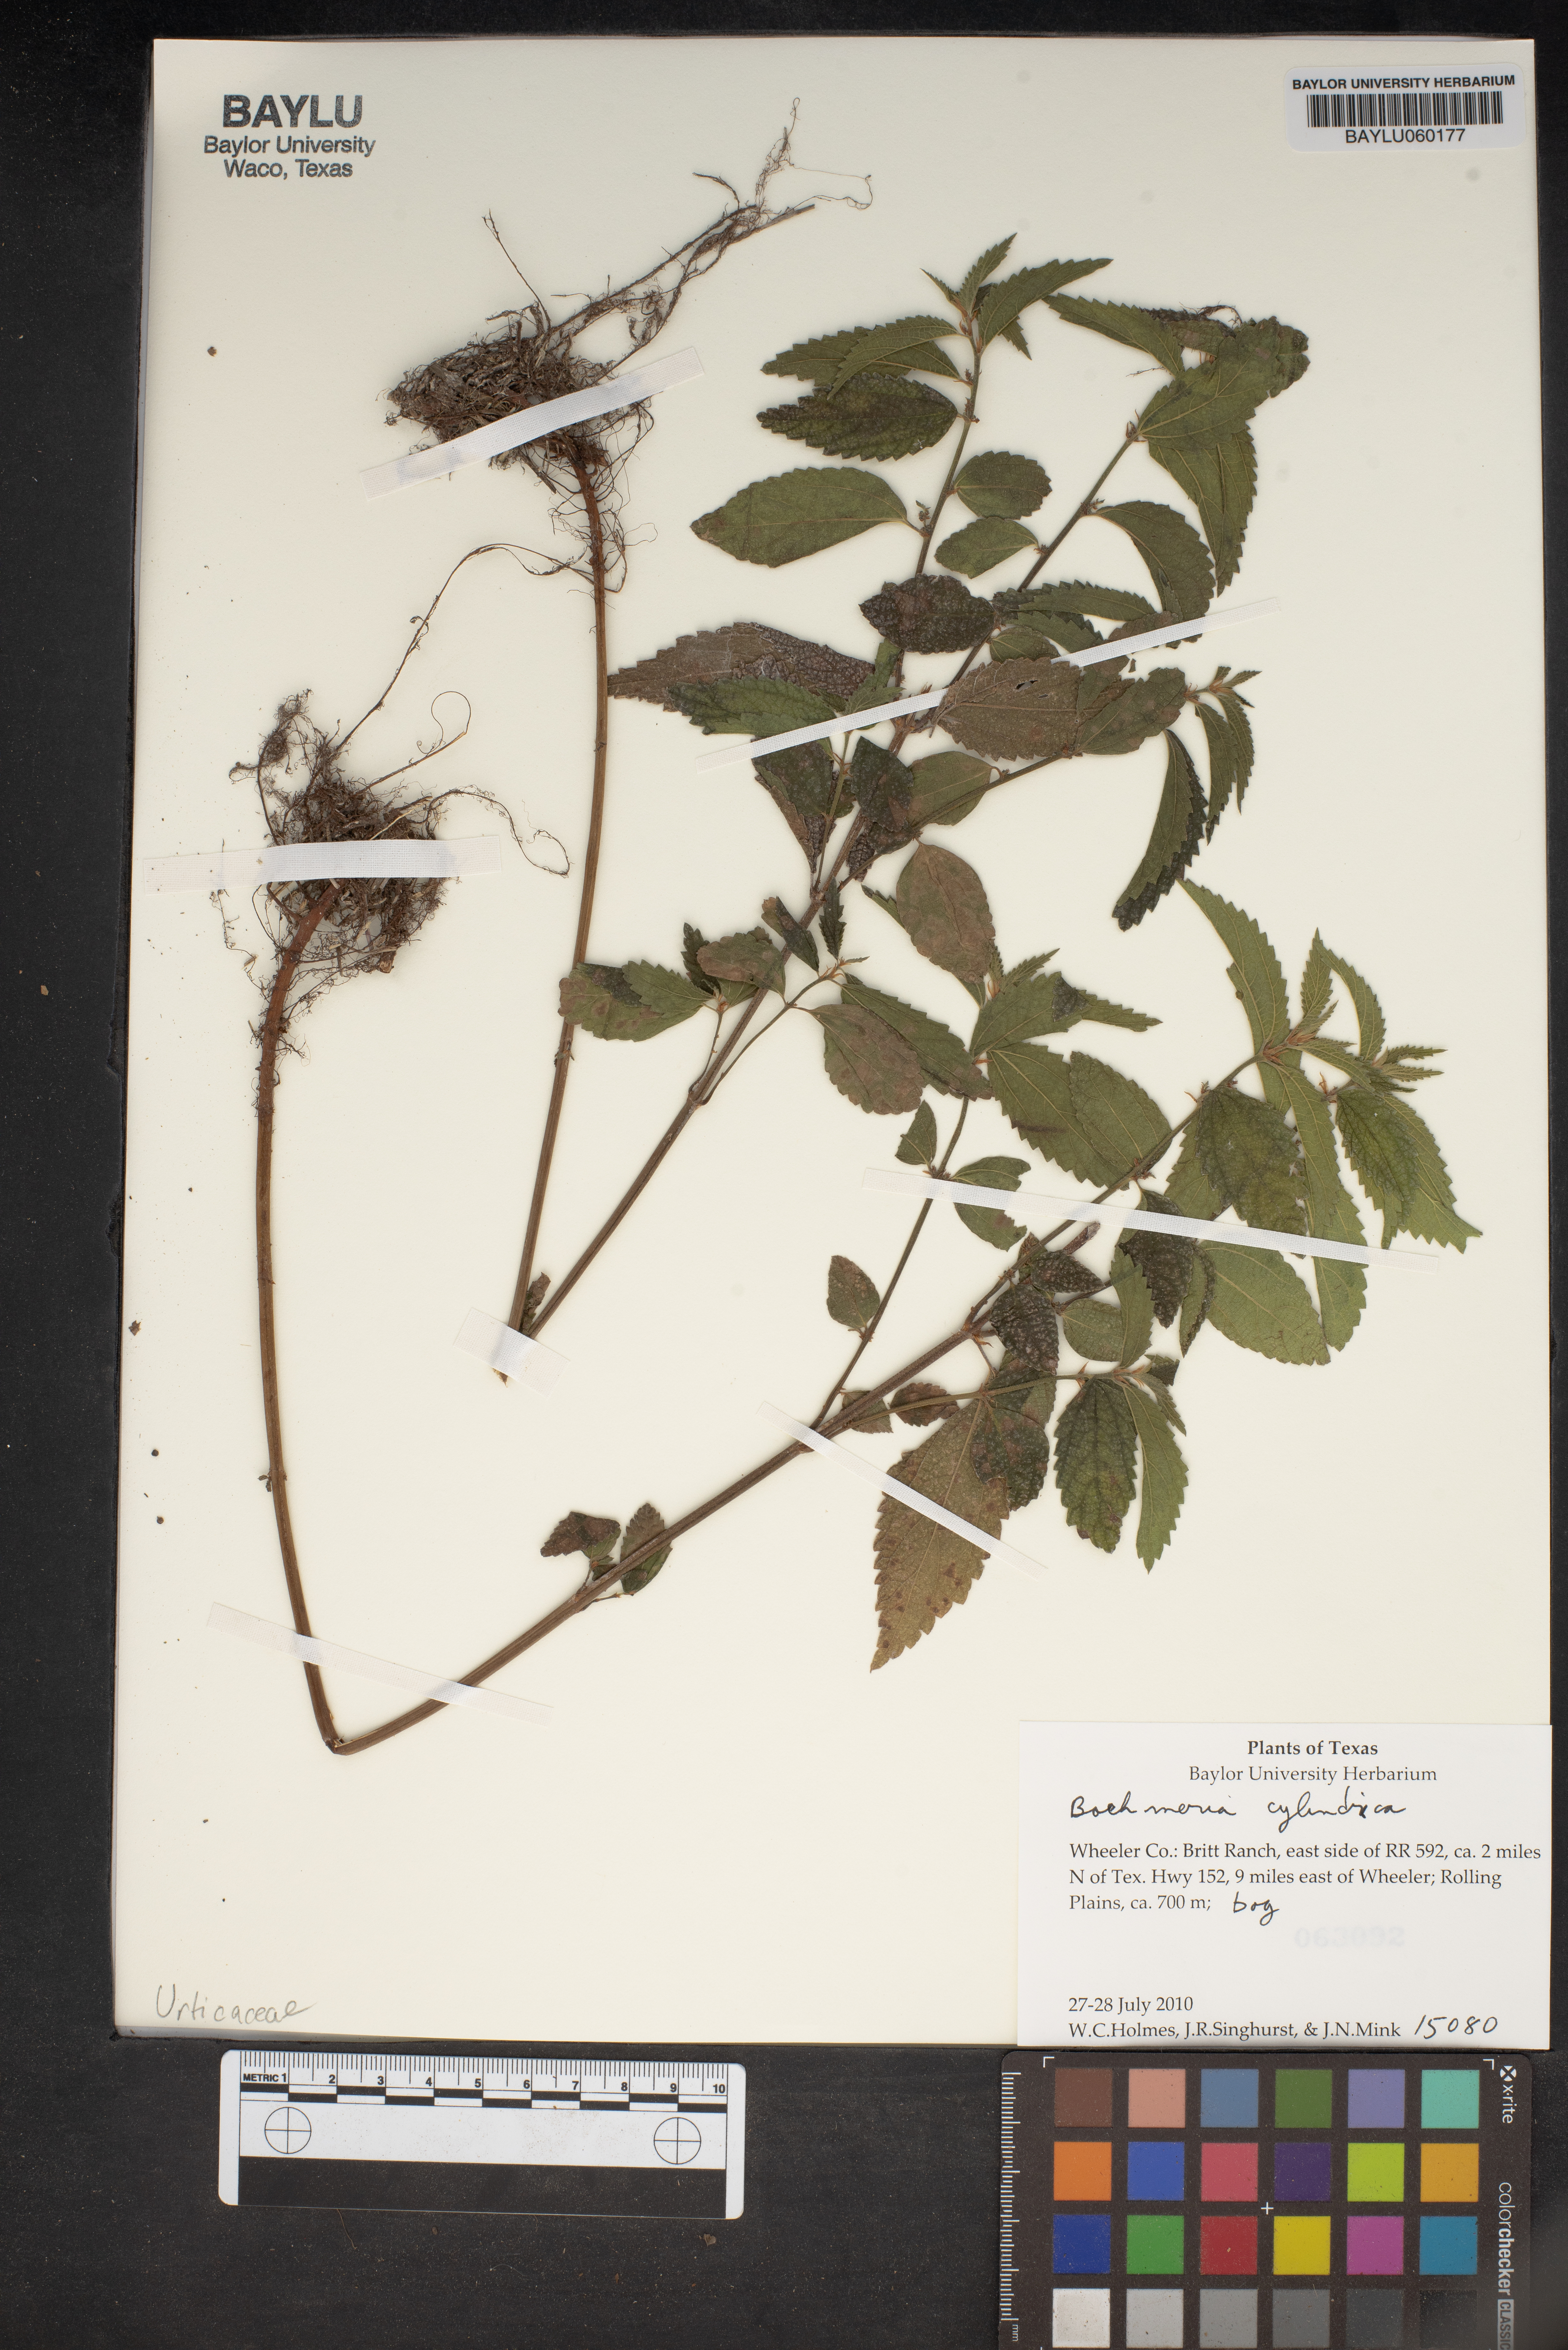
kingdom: Plantae
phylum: Tracheophyta
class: Magnoliopsida
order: Rosales
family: Urticaceae
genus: Boehmeria
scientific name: Boehmeria cylindrica
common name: Bog-hemp
